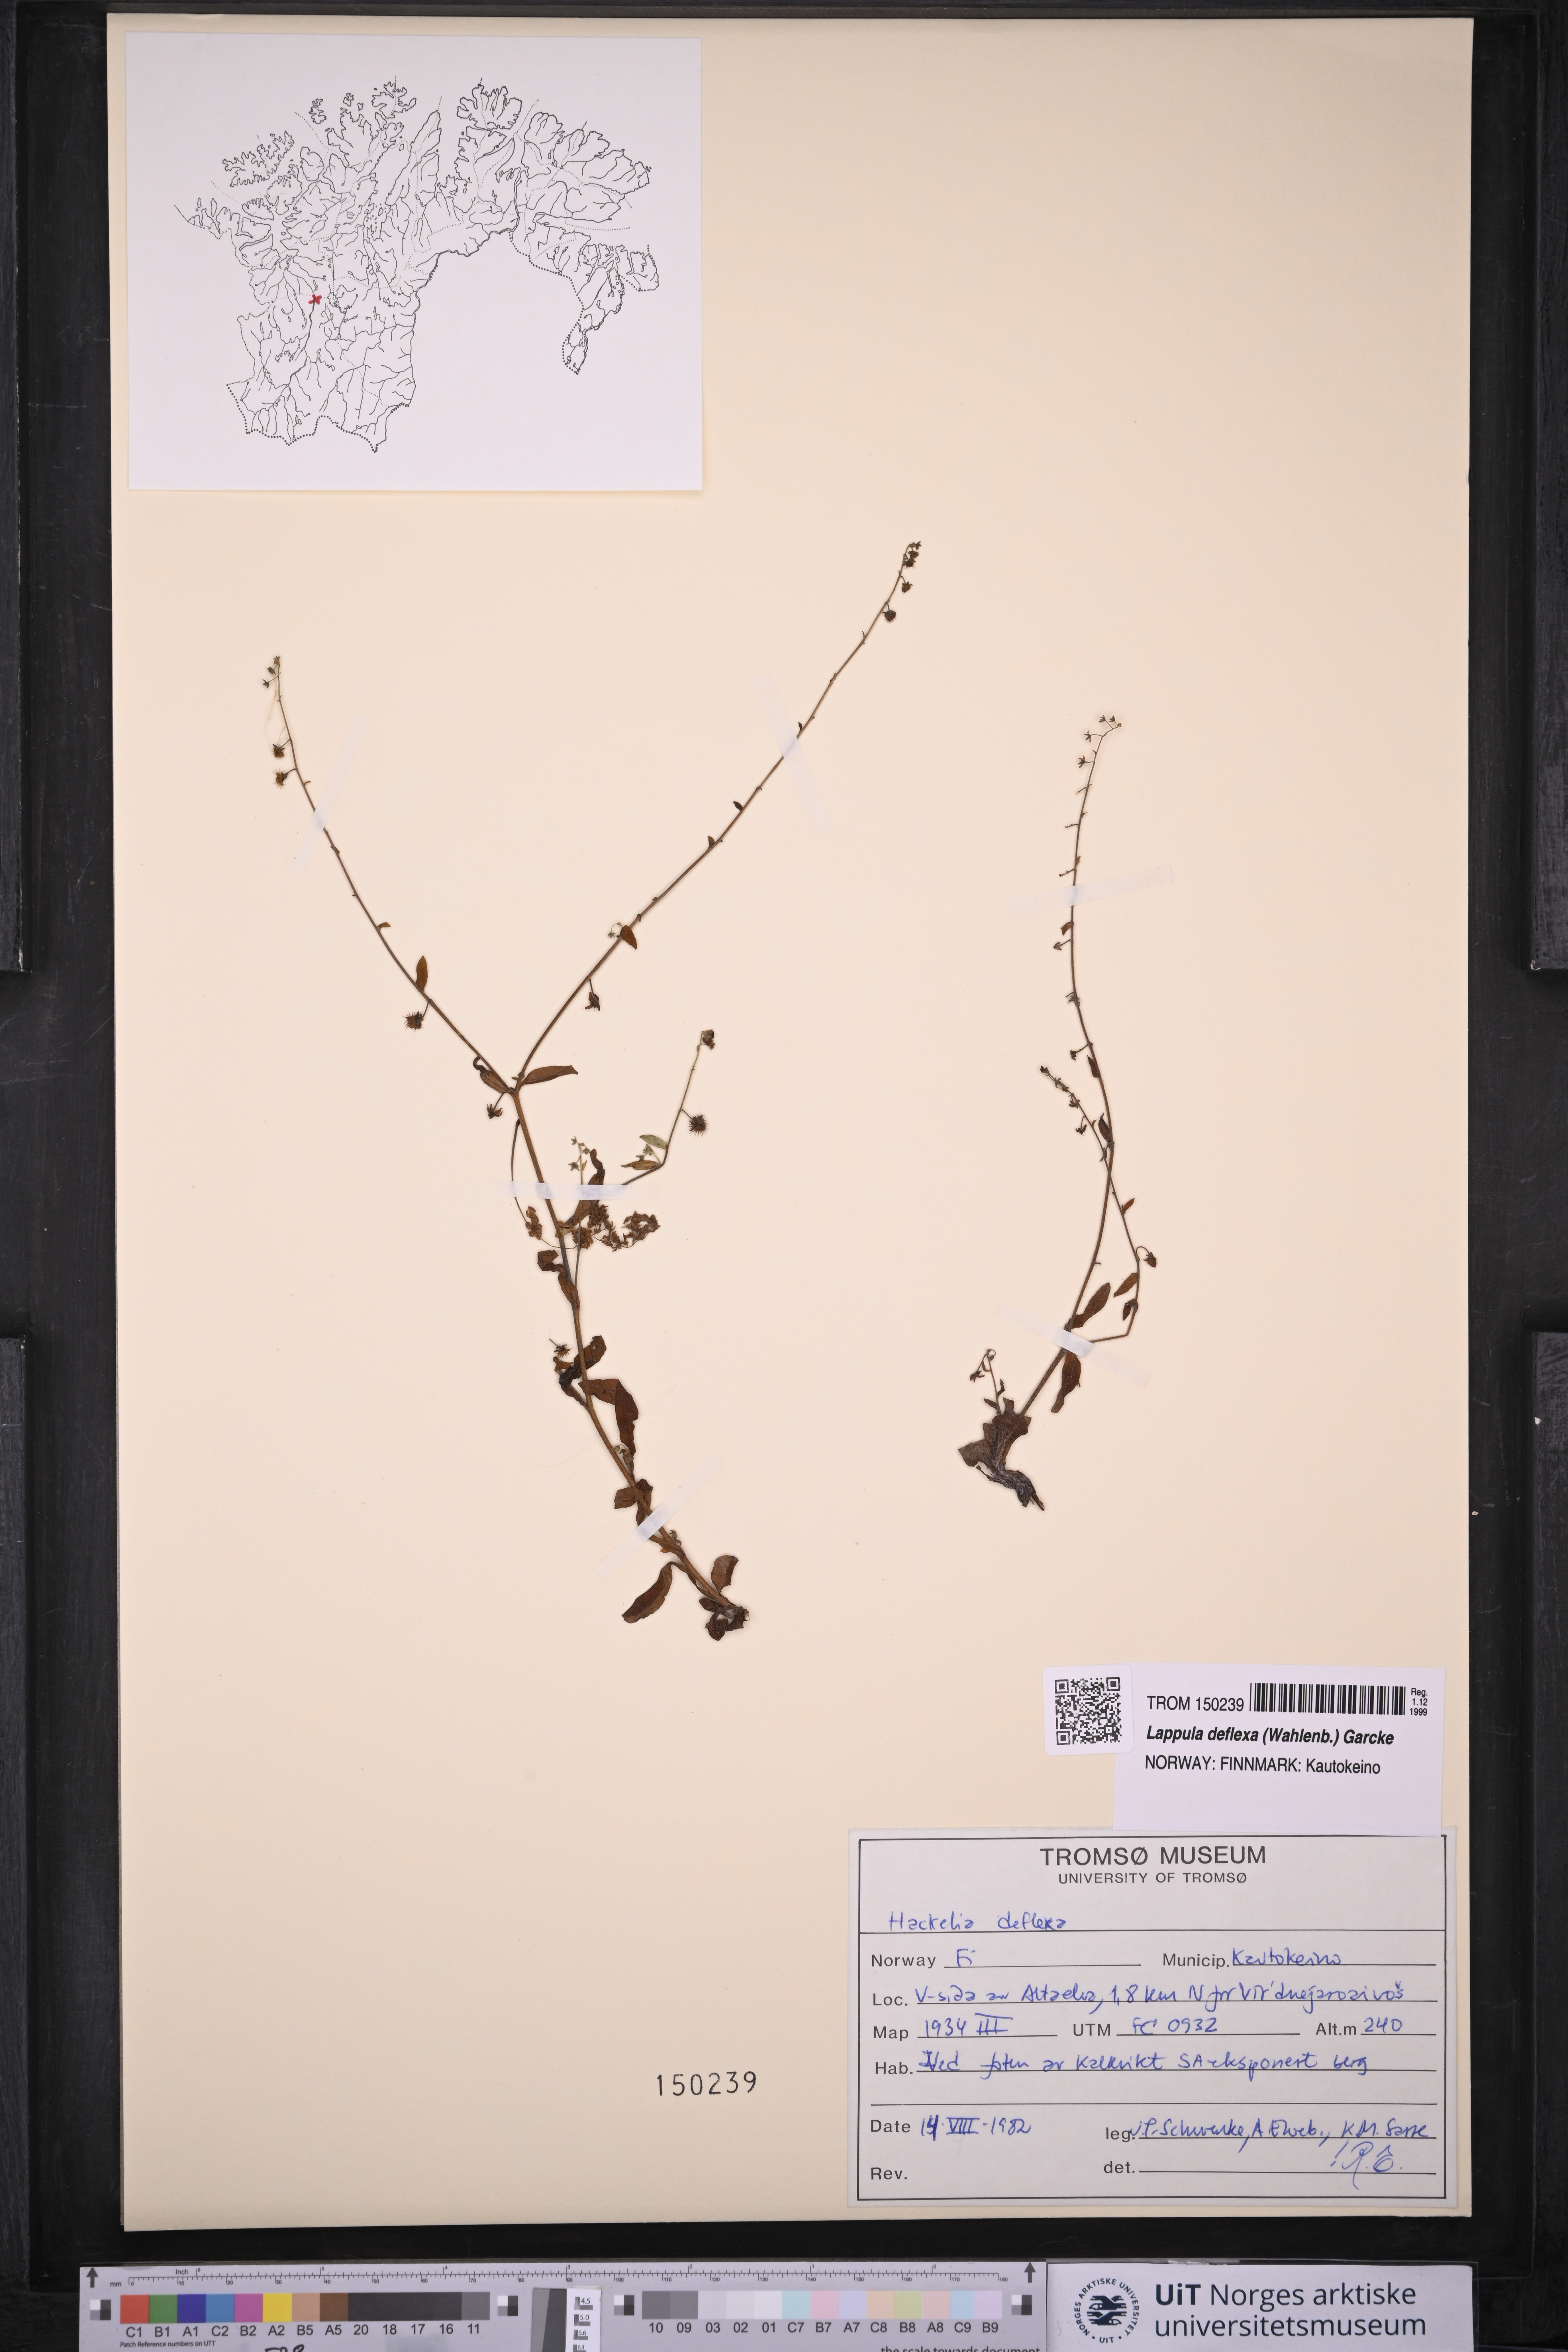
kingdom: Plantae
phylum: Tracheophyta
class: Magnoliopsida
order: Boraginales
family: Boraginaceae
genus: Hackelia
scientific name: Hackelia deflexa
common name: Nodding stickseed
